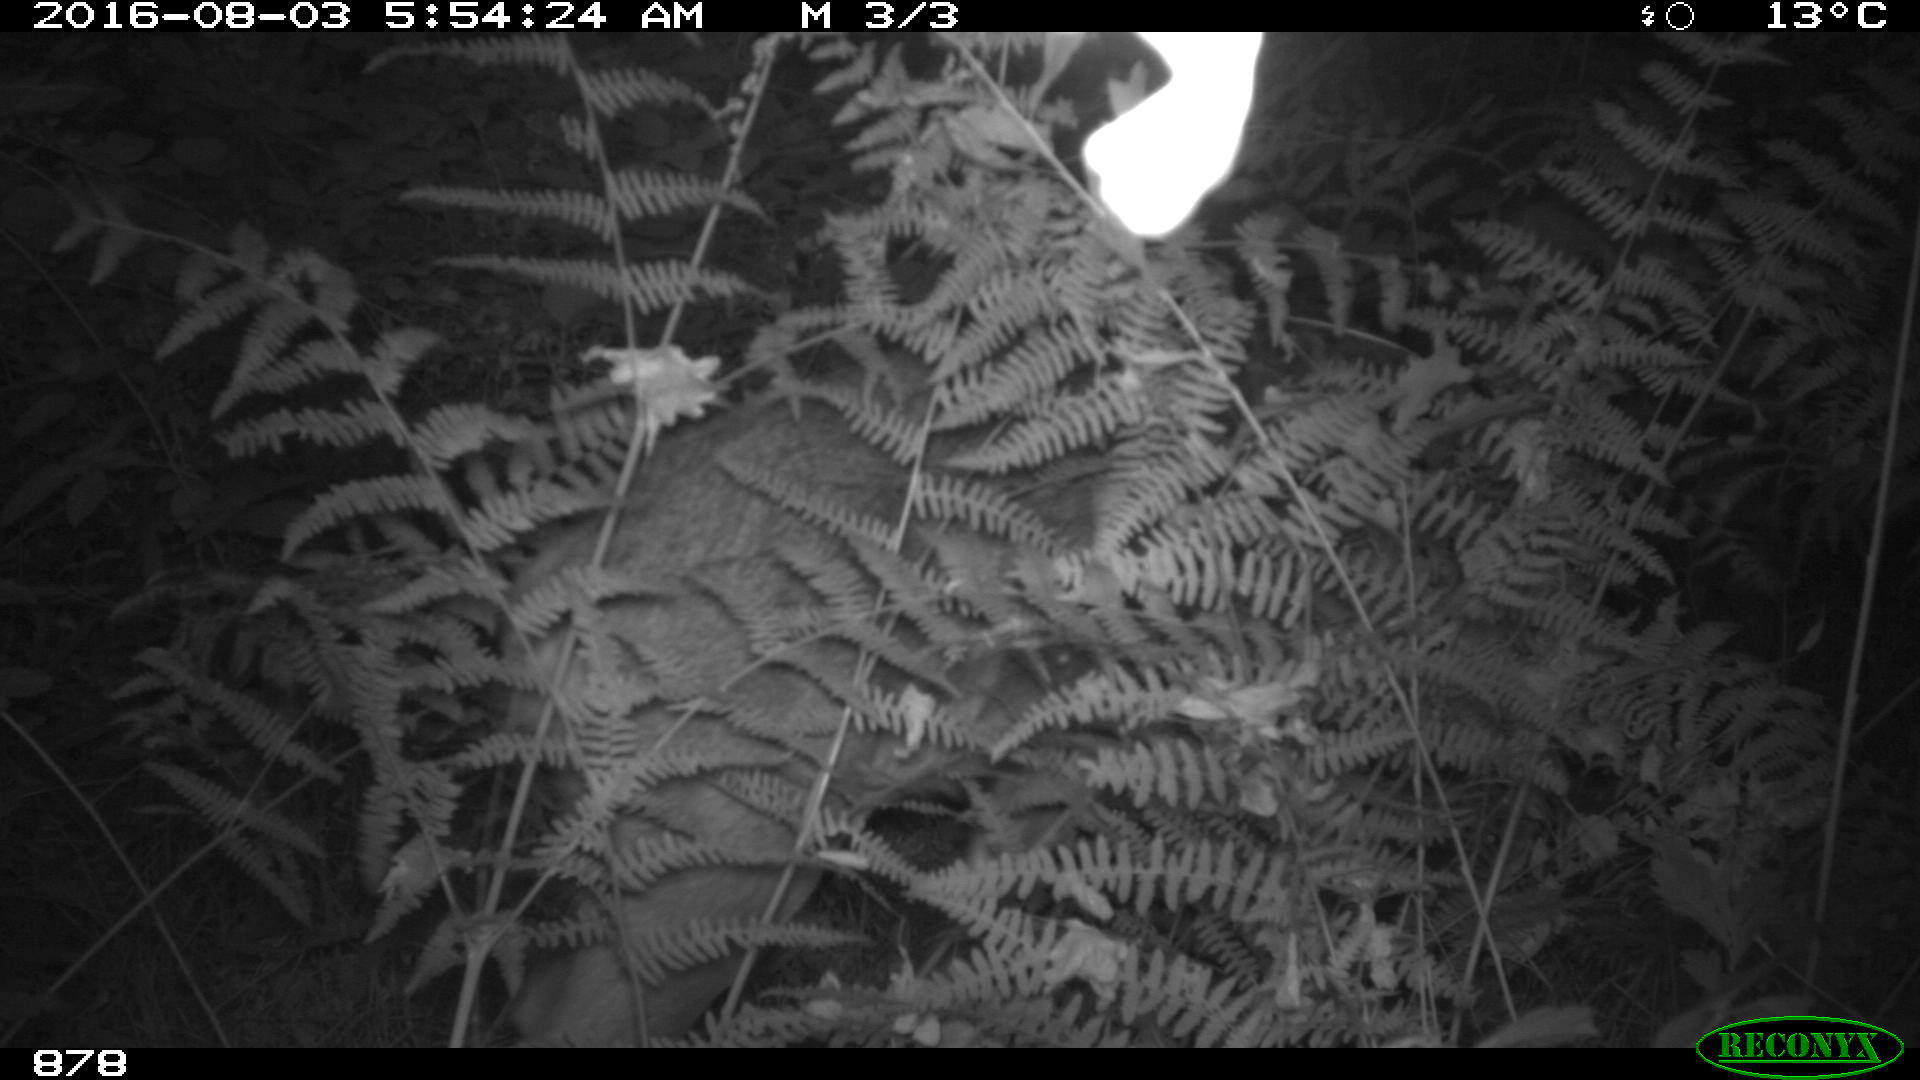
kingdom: Animalia
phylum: Chordata
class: Mammalia
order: Artiodactyla
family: Cervidae
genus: Capreolus
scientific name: Capreolus capreolus
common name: Western roe deer
